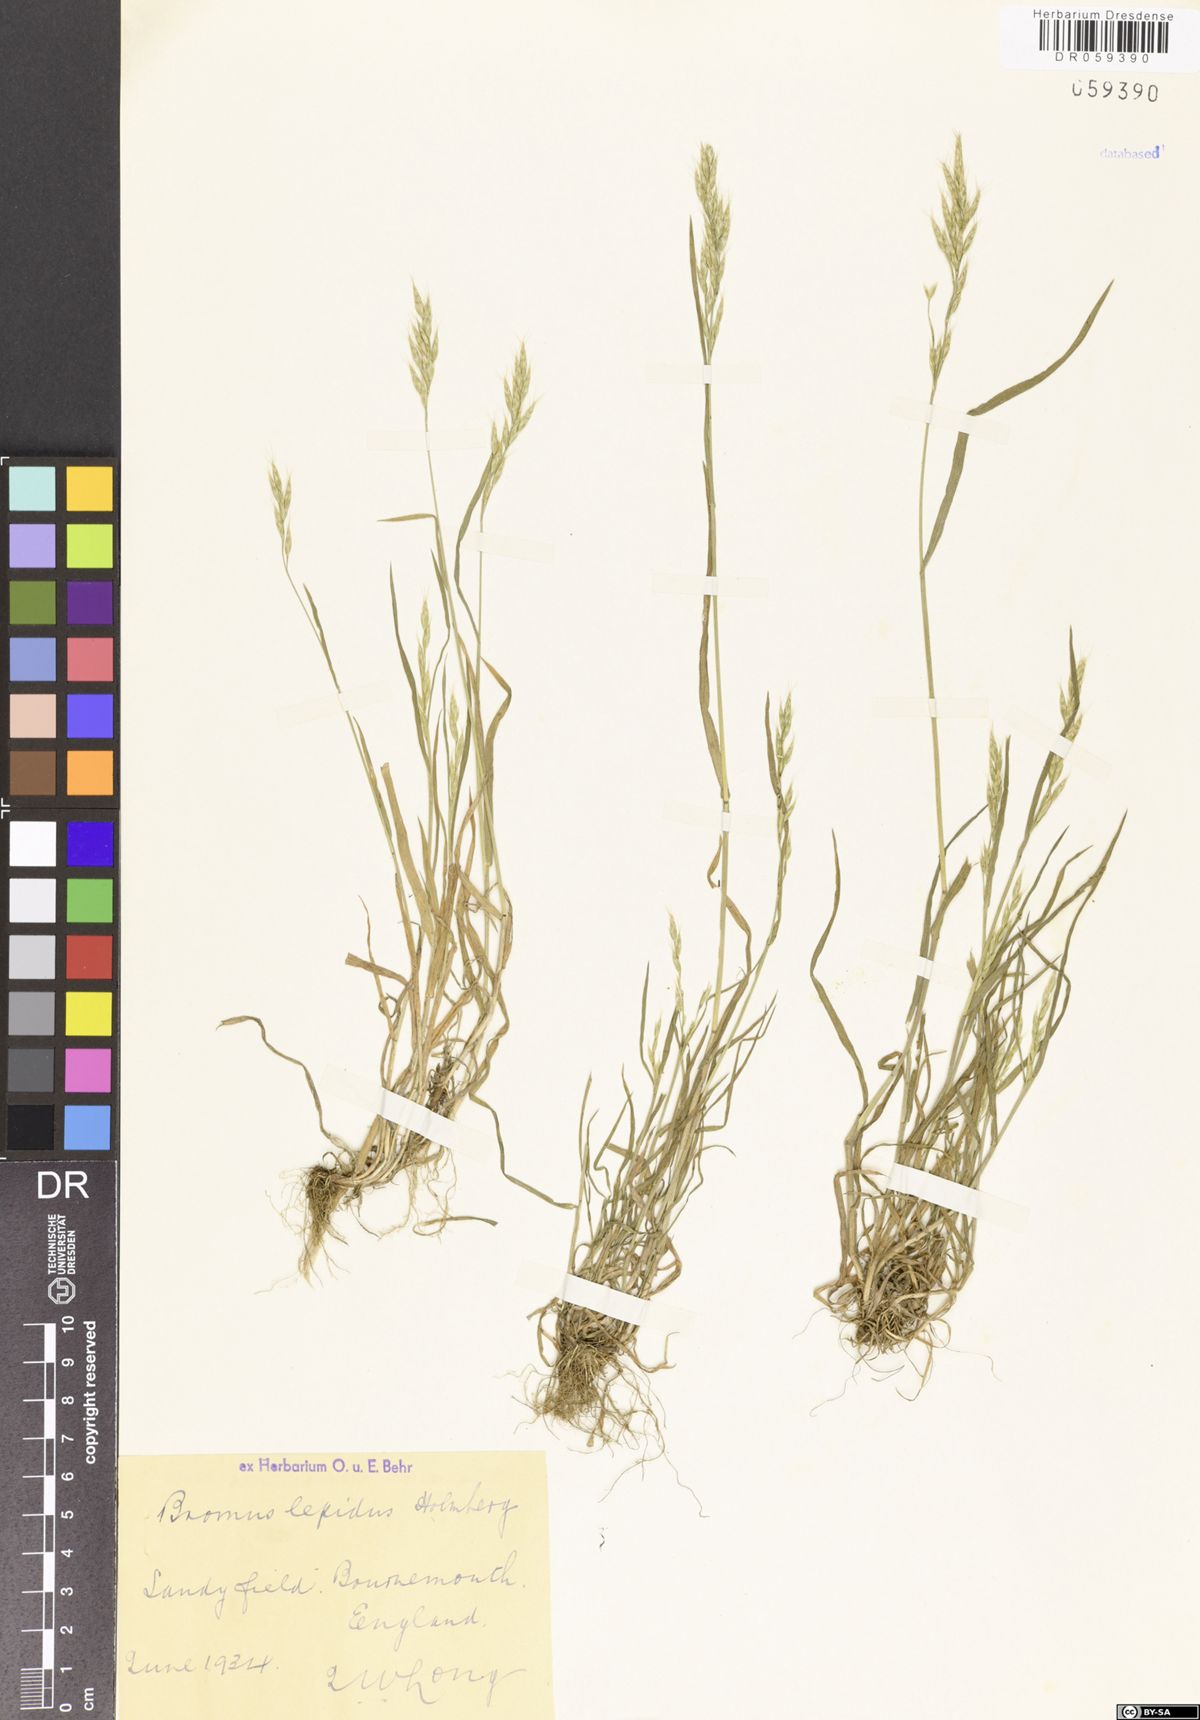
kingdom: Plantae
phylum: Tracheophyta
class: Liliopsida
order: Poales
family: Poaceae
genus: Bromus
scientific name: Bromus lepidus
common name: Slender soft-brome
